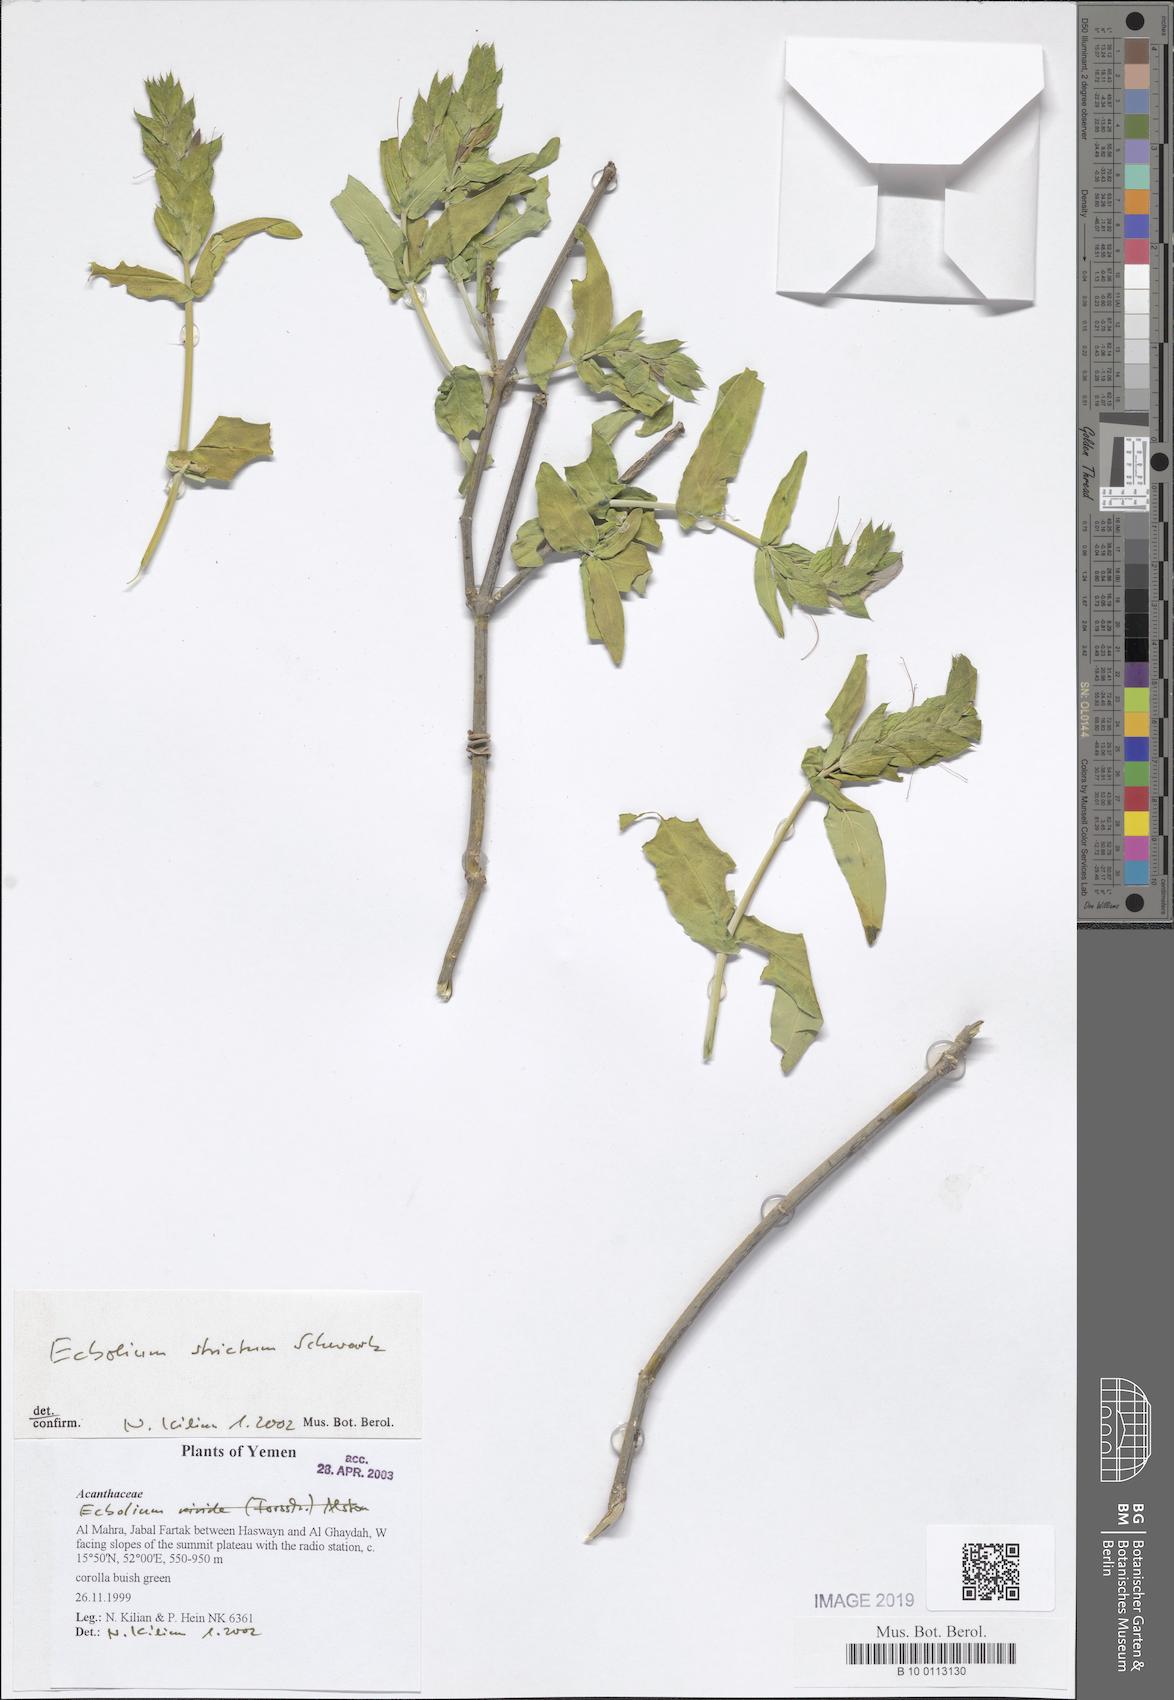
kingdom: Plantae
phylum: Tracheophyta
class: Magnoliopsida
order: Lamiales
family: Acanthaceae
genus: Ecbolium
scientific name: Ecbolium strictum
